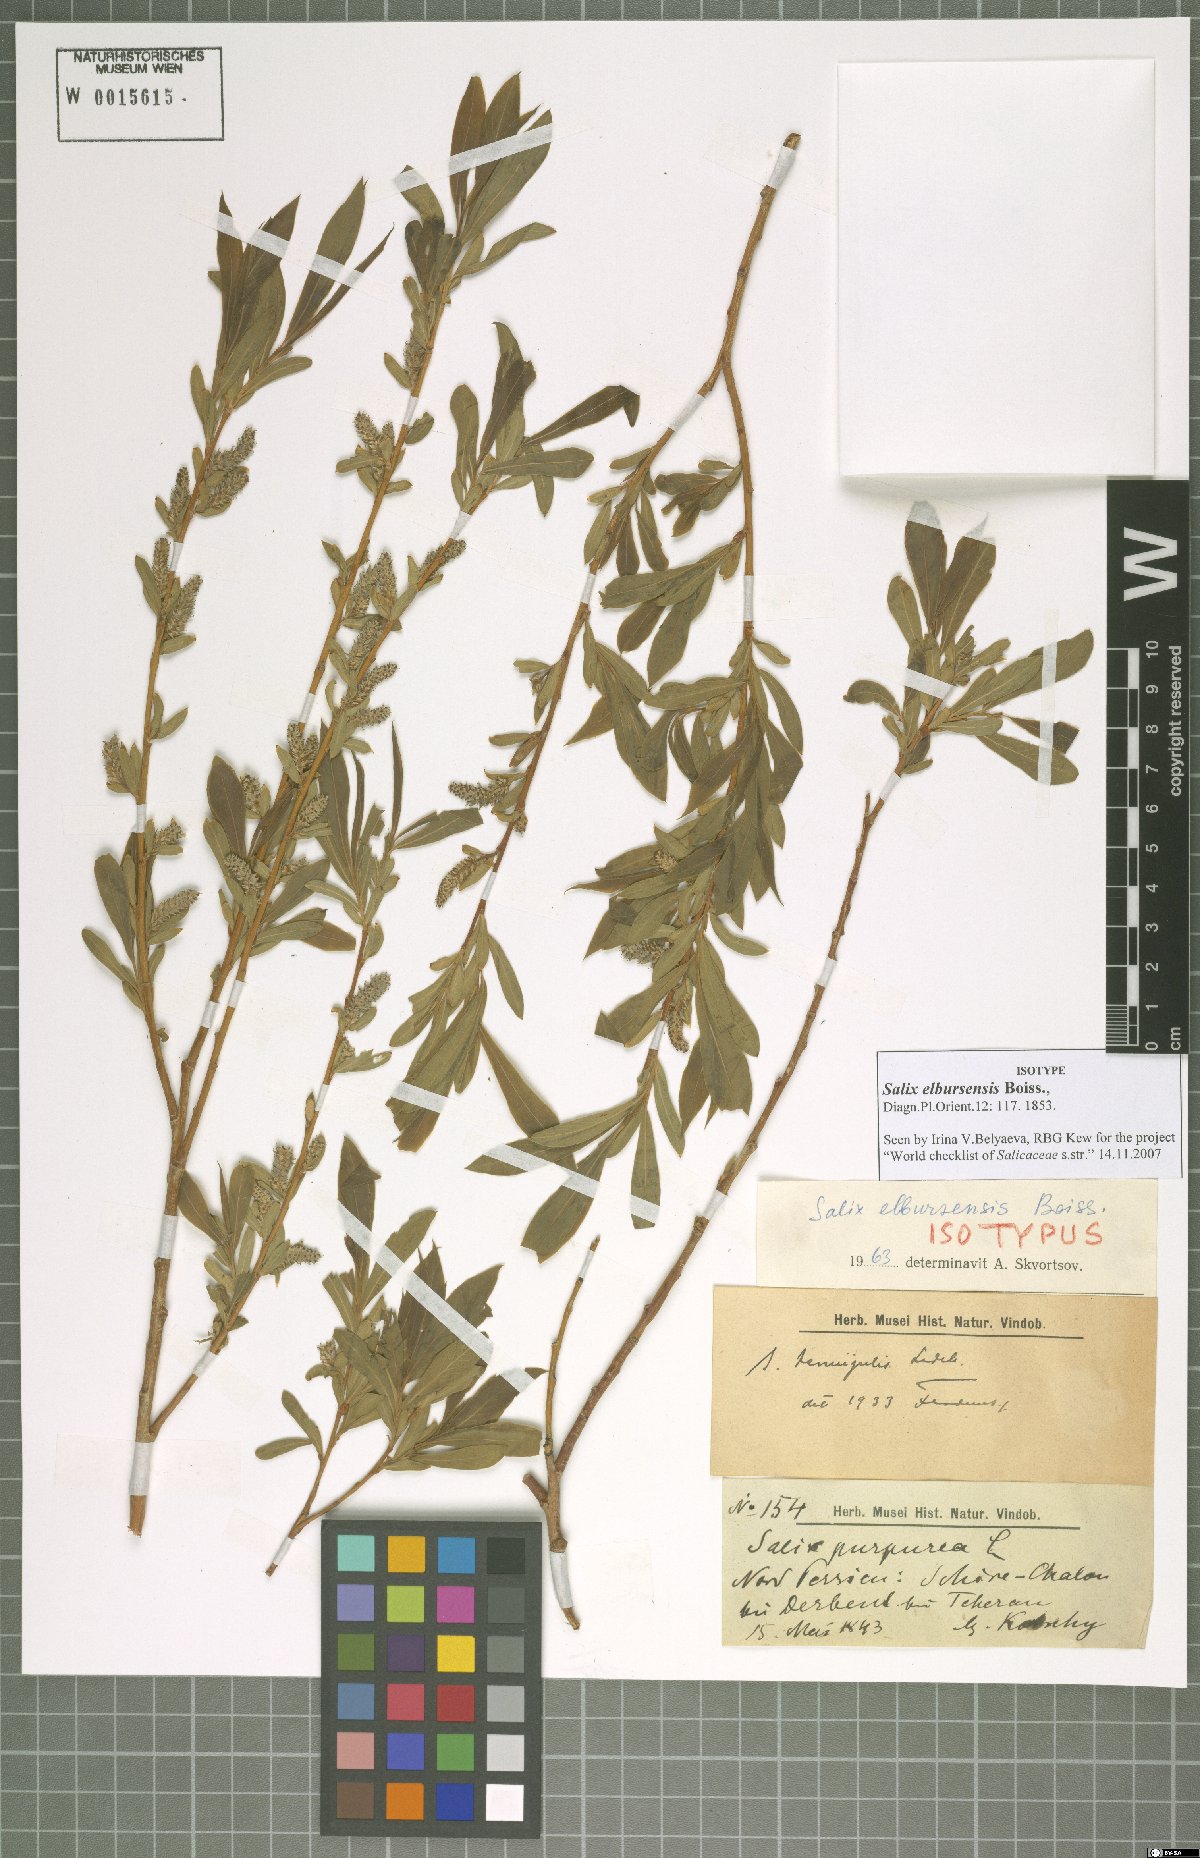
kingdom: Plantae
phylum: Tracheophyta
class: Magnoliopsida
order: Malpighiales
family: Salicaceae
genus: Salix
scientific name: Salix elbursensis
